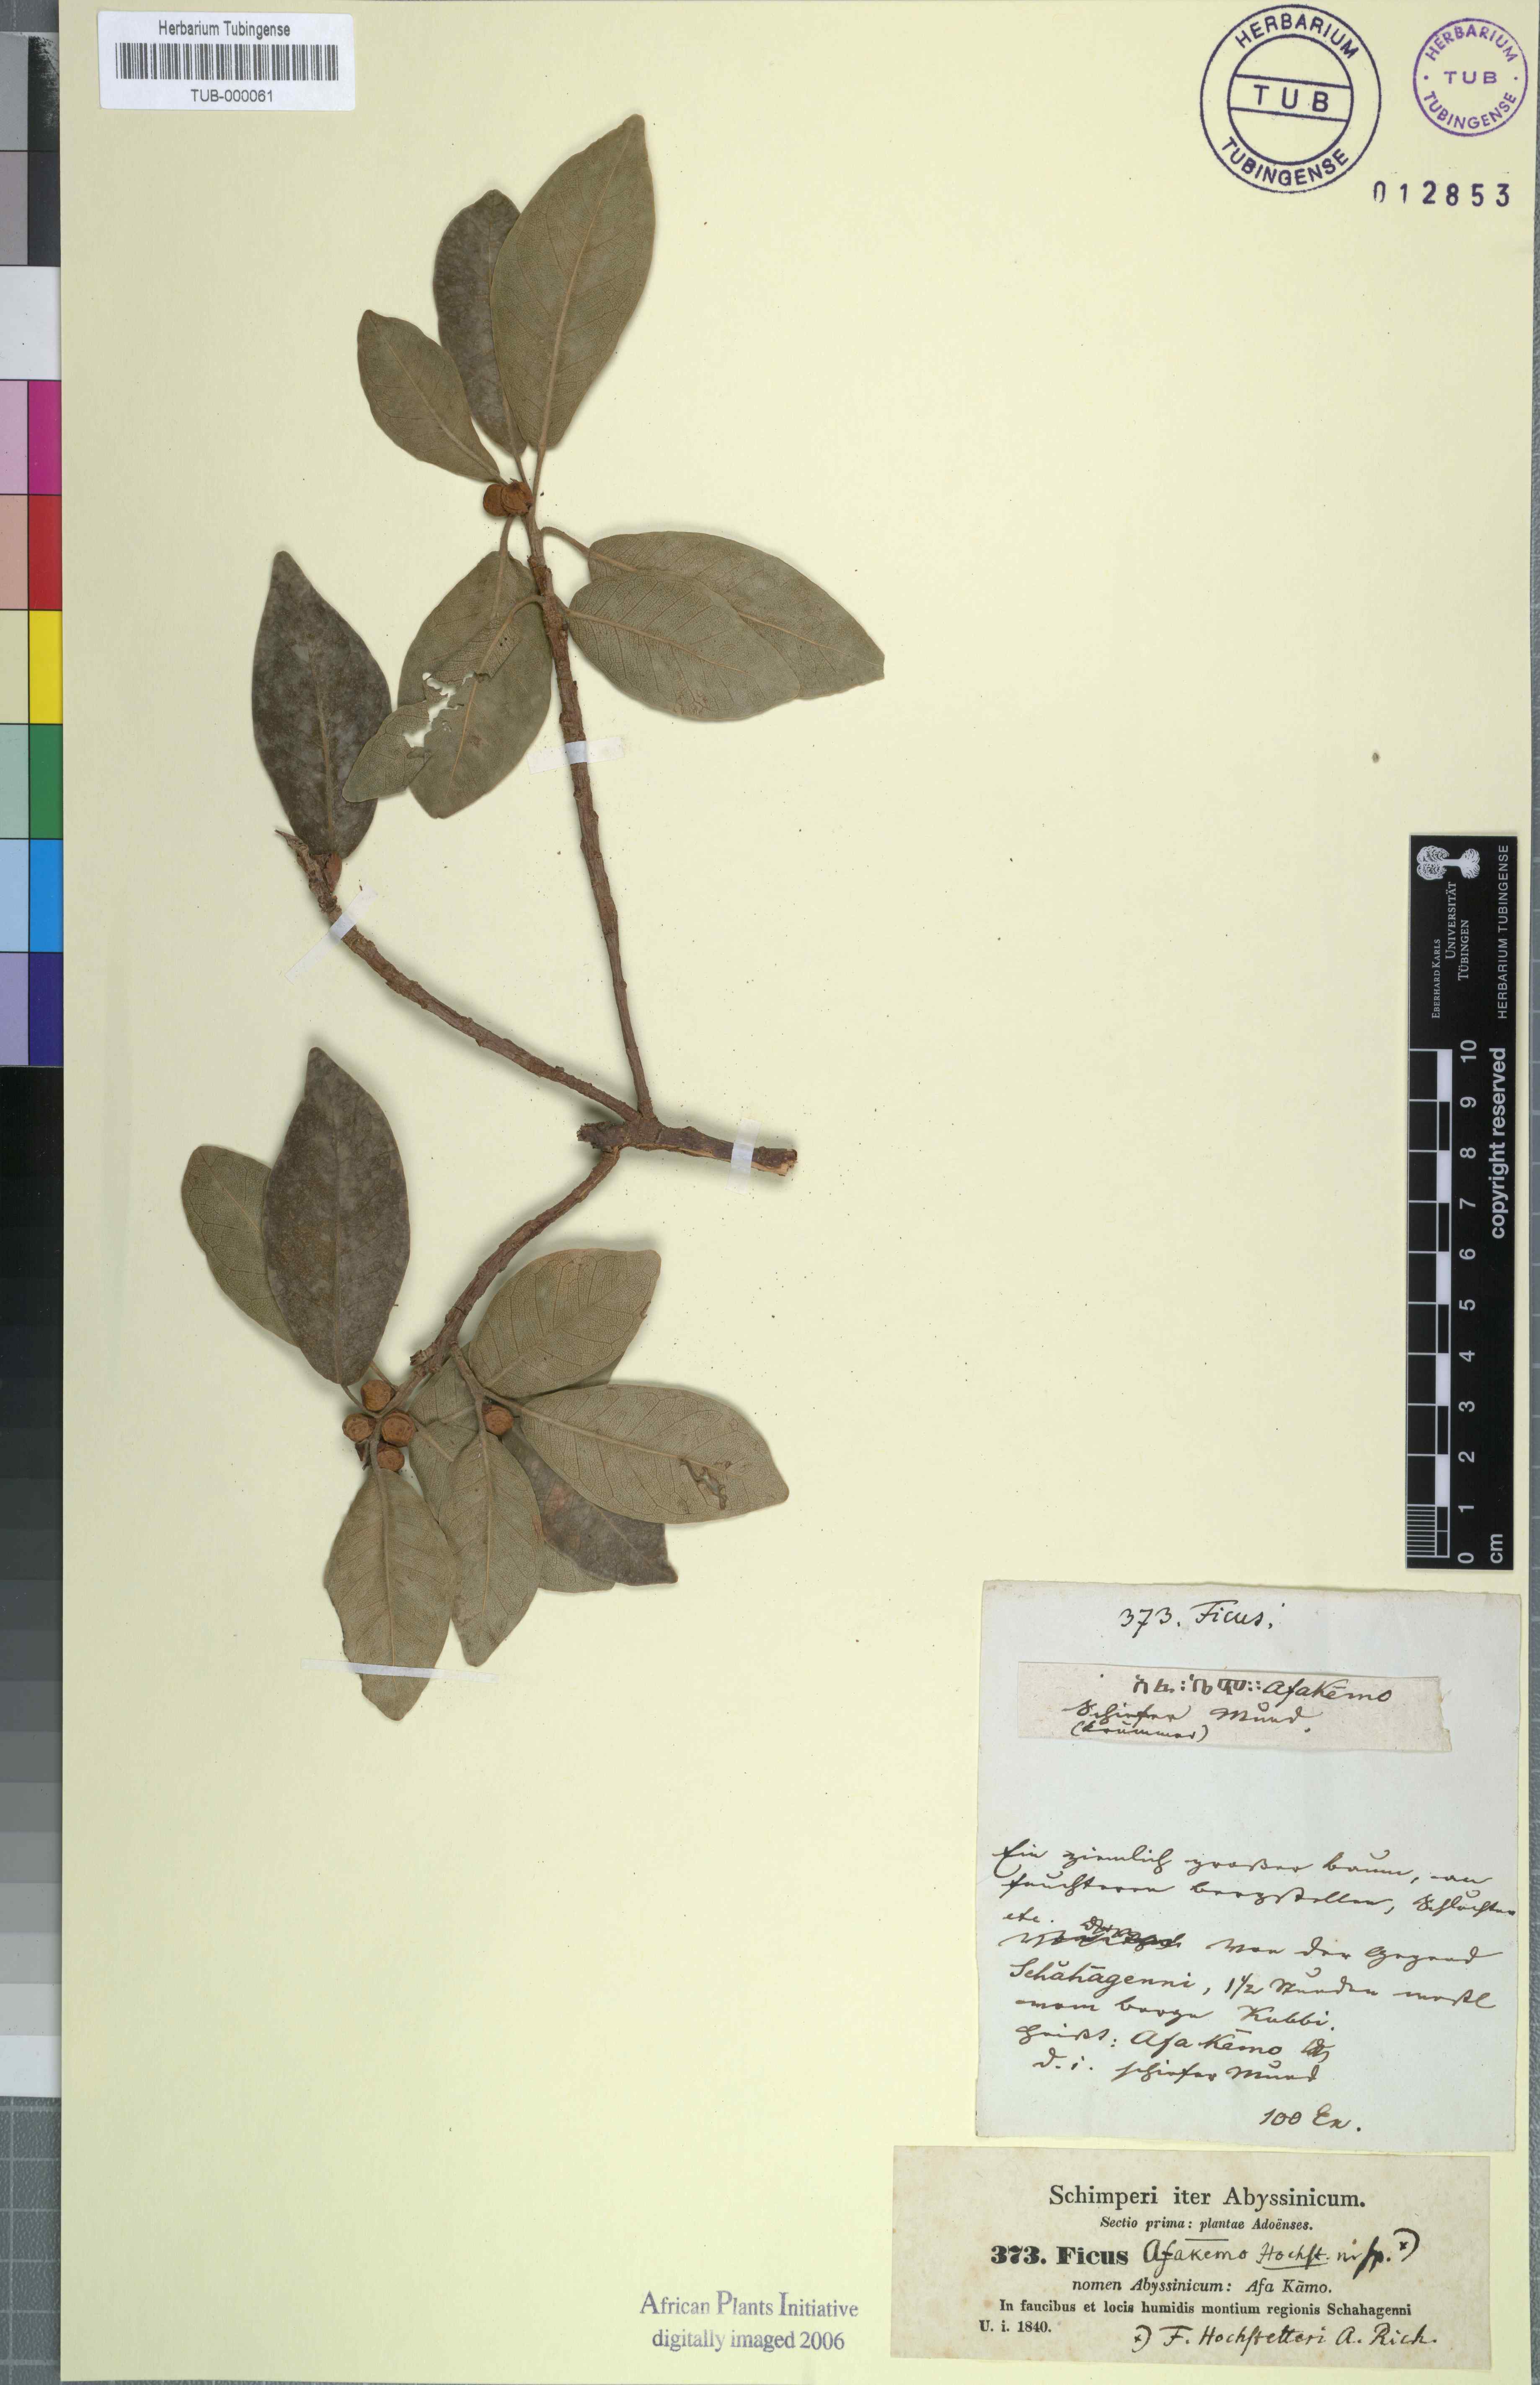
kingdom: Plantae
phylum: Tracheophyta
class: Magnoliopsida
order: Rosales
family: Moraceae
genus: Ficus
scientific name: Ficus thonningii
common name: Fig
